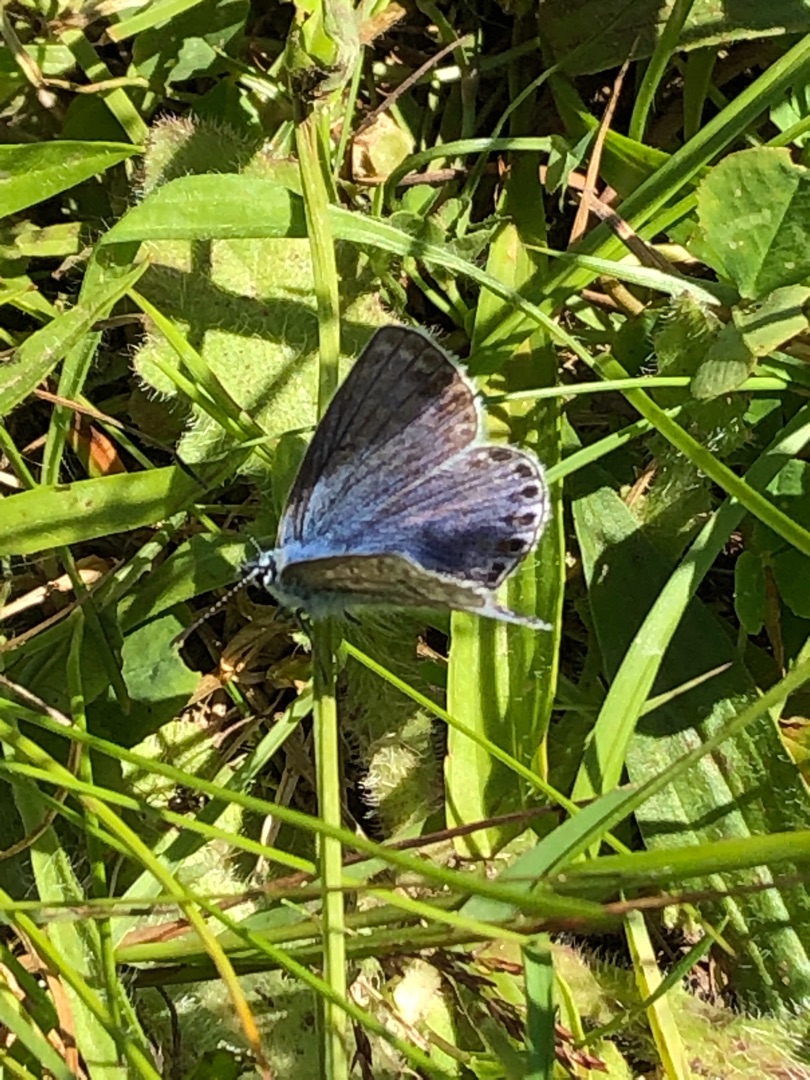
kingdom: Animalia
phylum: Arthropoda
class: Insecta
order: Lepidoptera
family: Lycaenidae
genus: Polyommatus
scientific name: Polyommatus icarus
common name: Almindelig blåfugl
